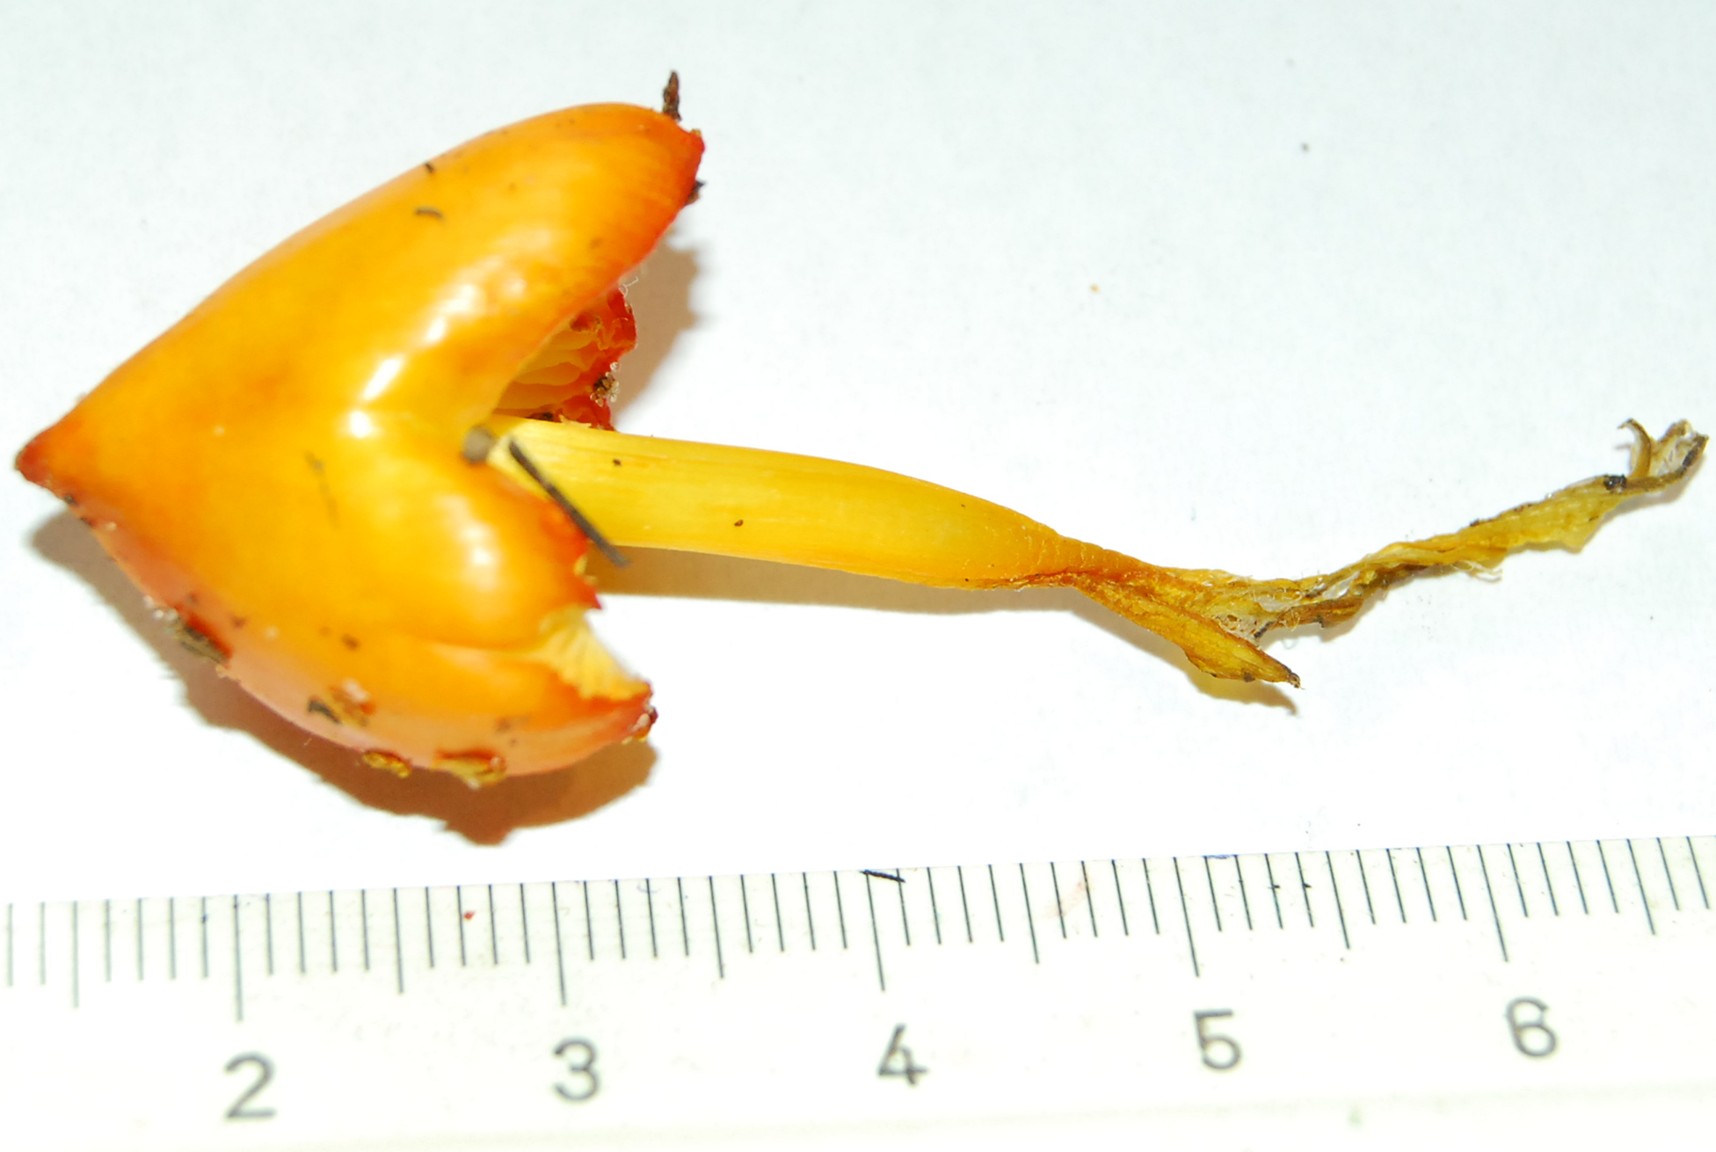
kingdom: Fungi
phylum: Basidiomycota
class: Agaricomycetes
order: Agaricales
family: Hygrophoraceae
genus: Hygrocybe
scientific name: Hygrocybe acutoconica
